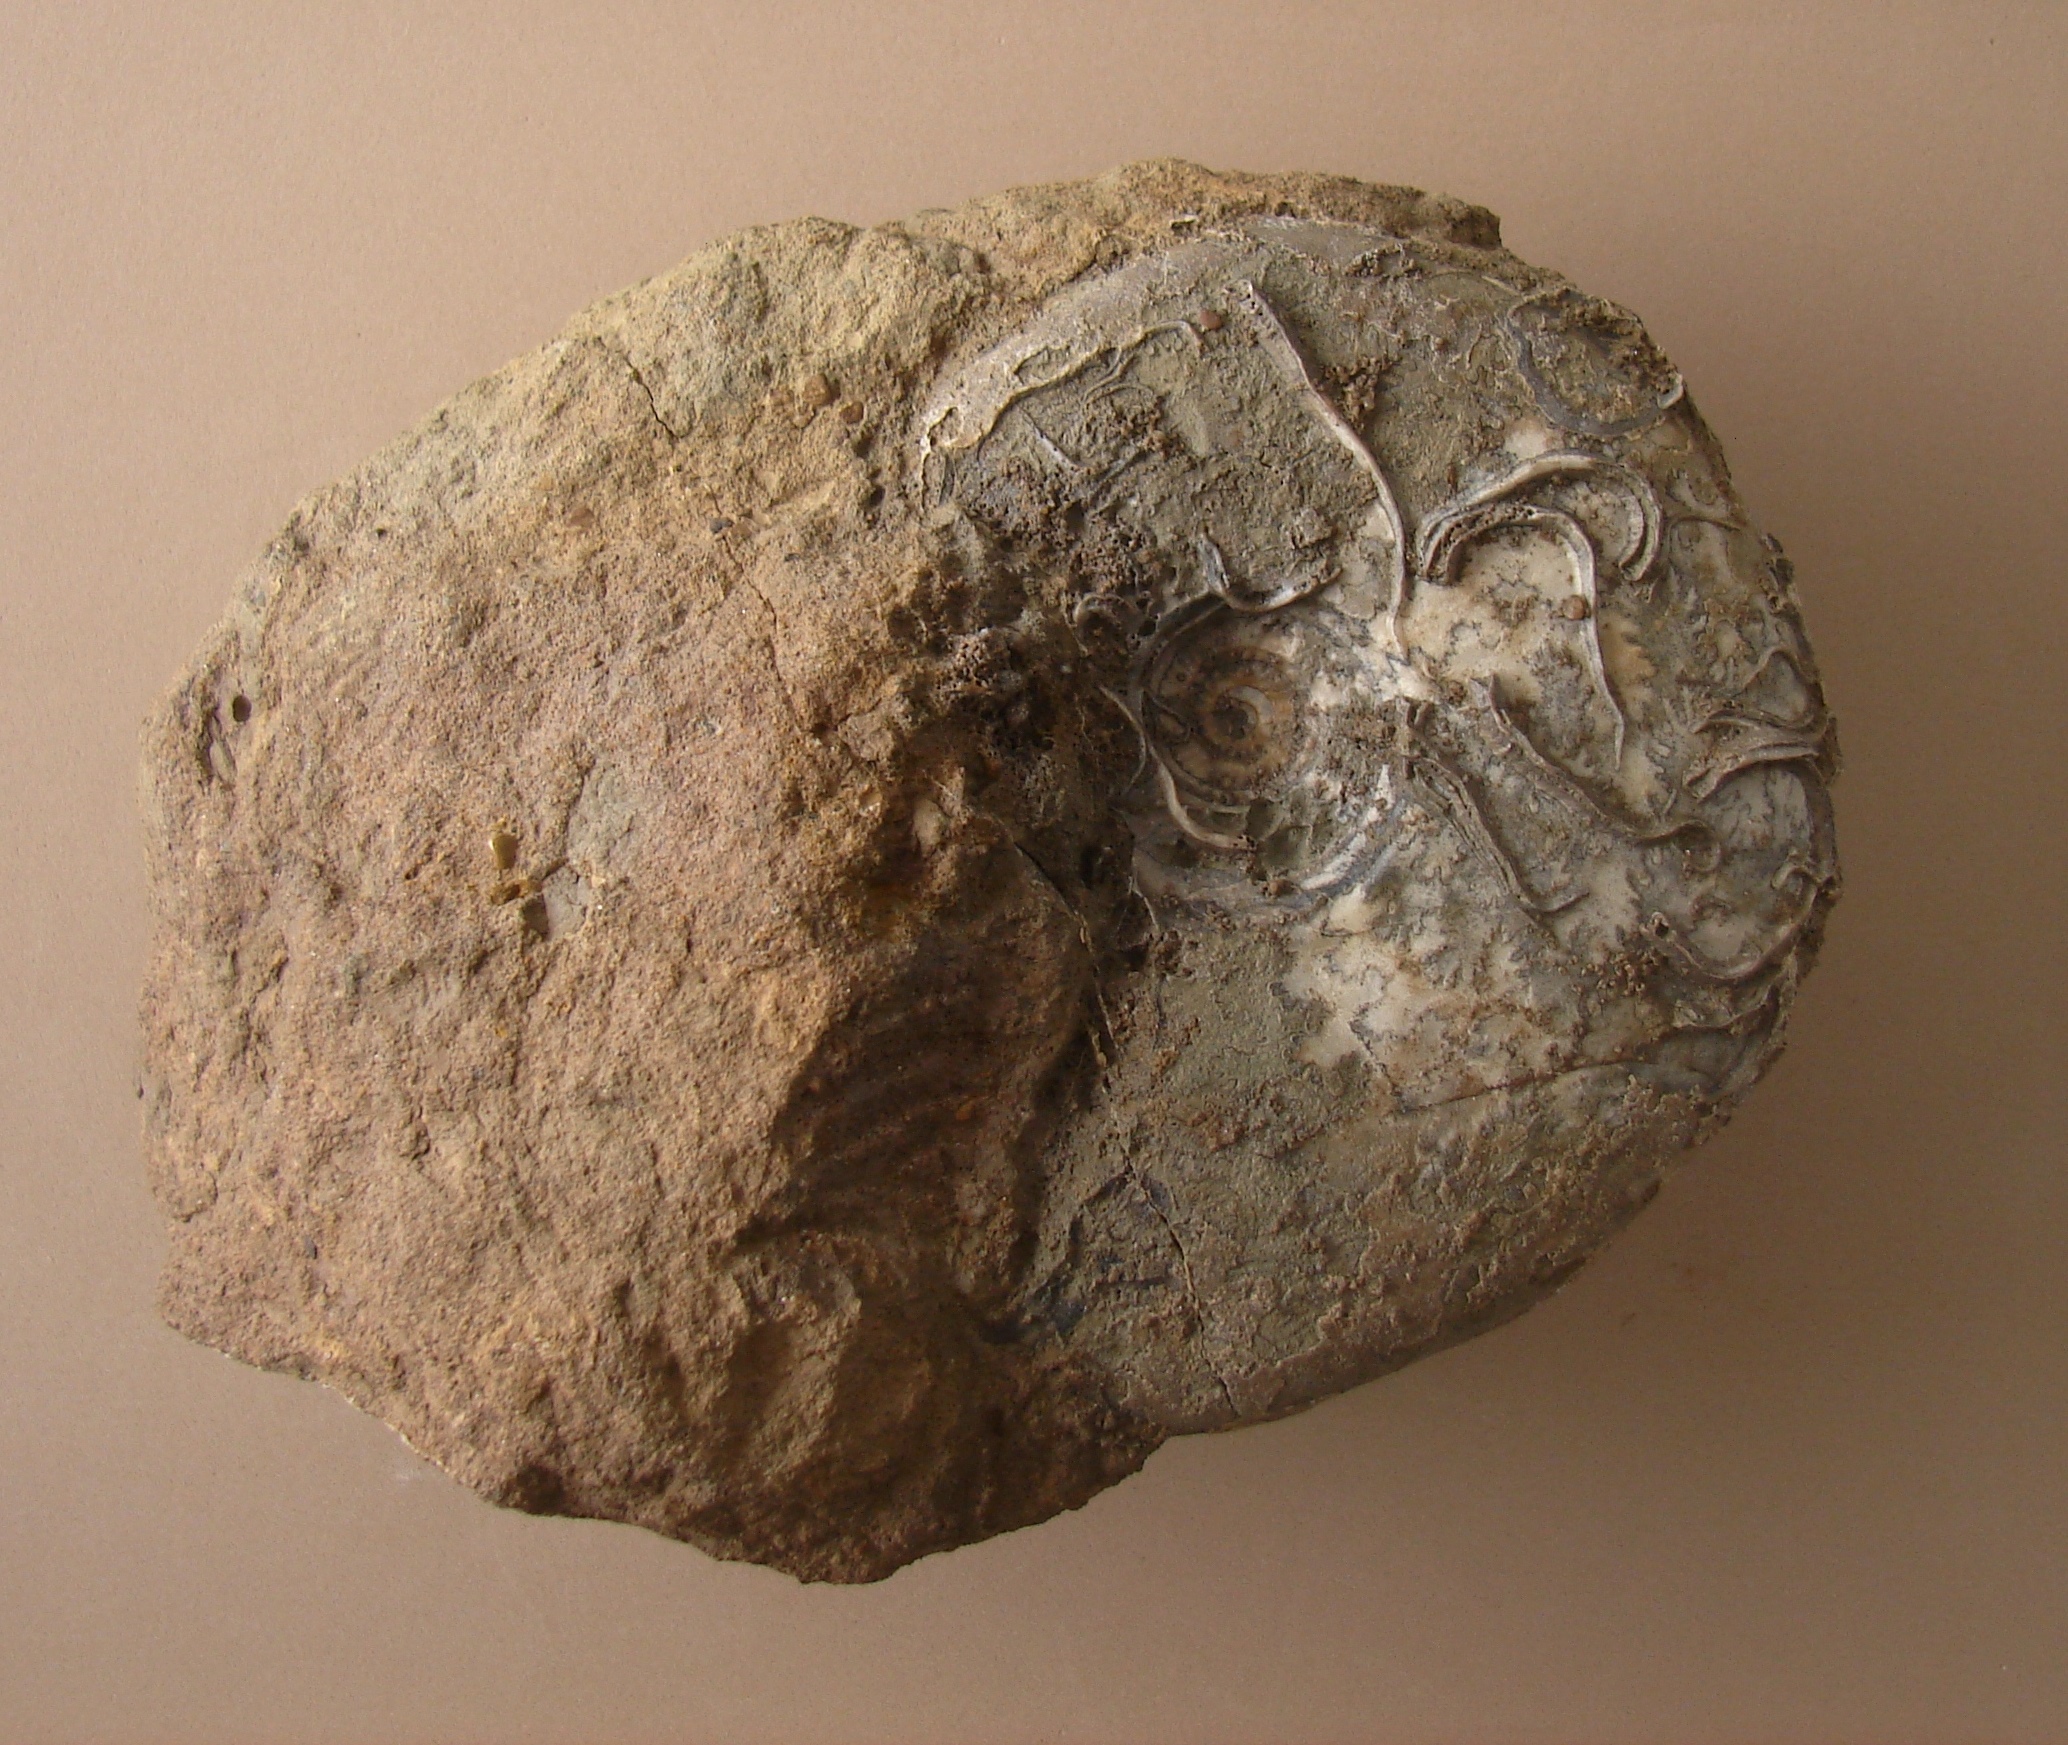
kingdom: Animalia
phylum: Mollusca
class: Cephalopoda
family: Graphoceratidae
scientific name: Graphoceratidae
